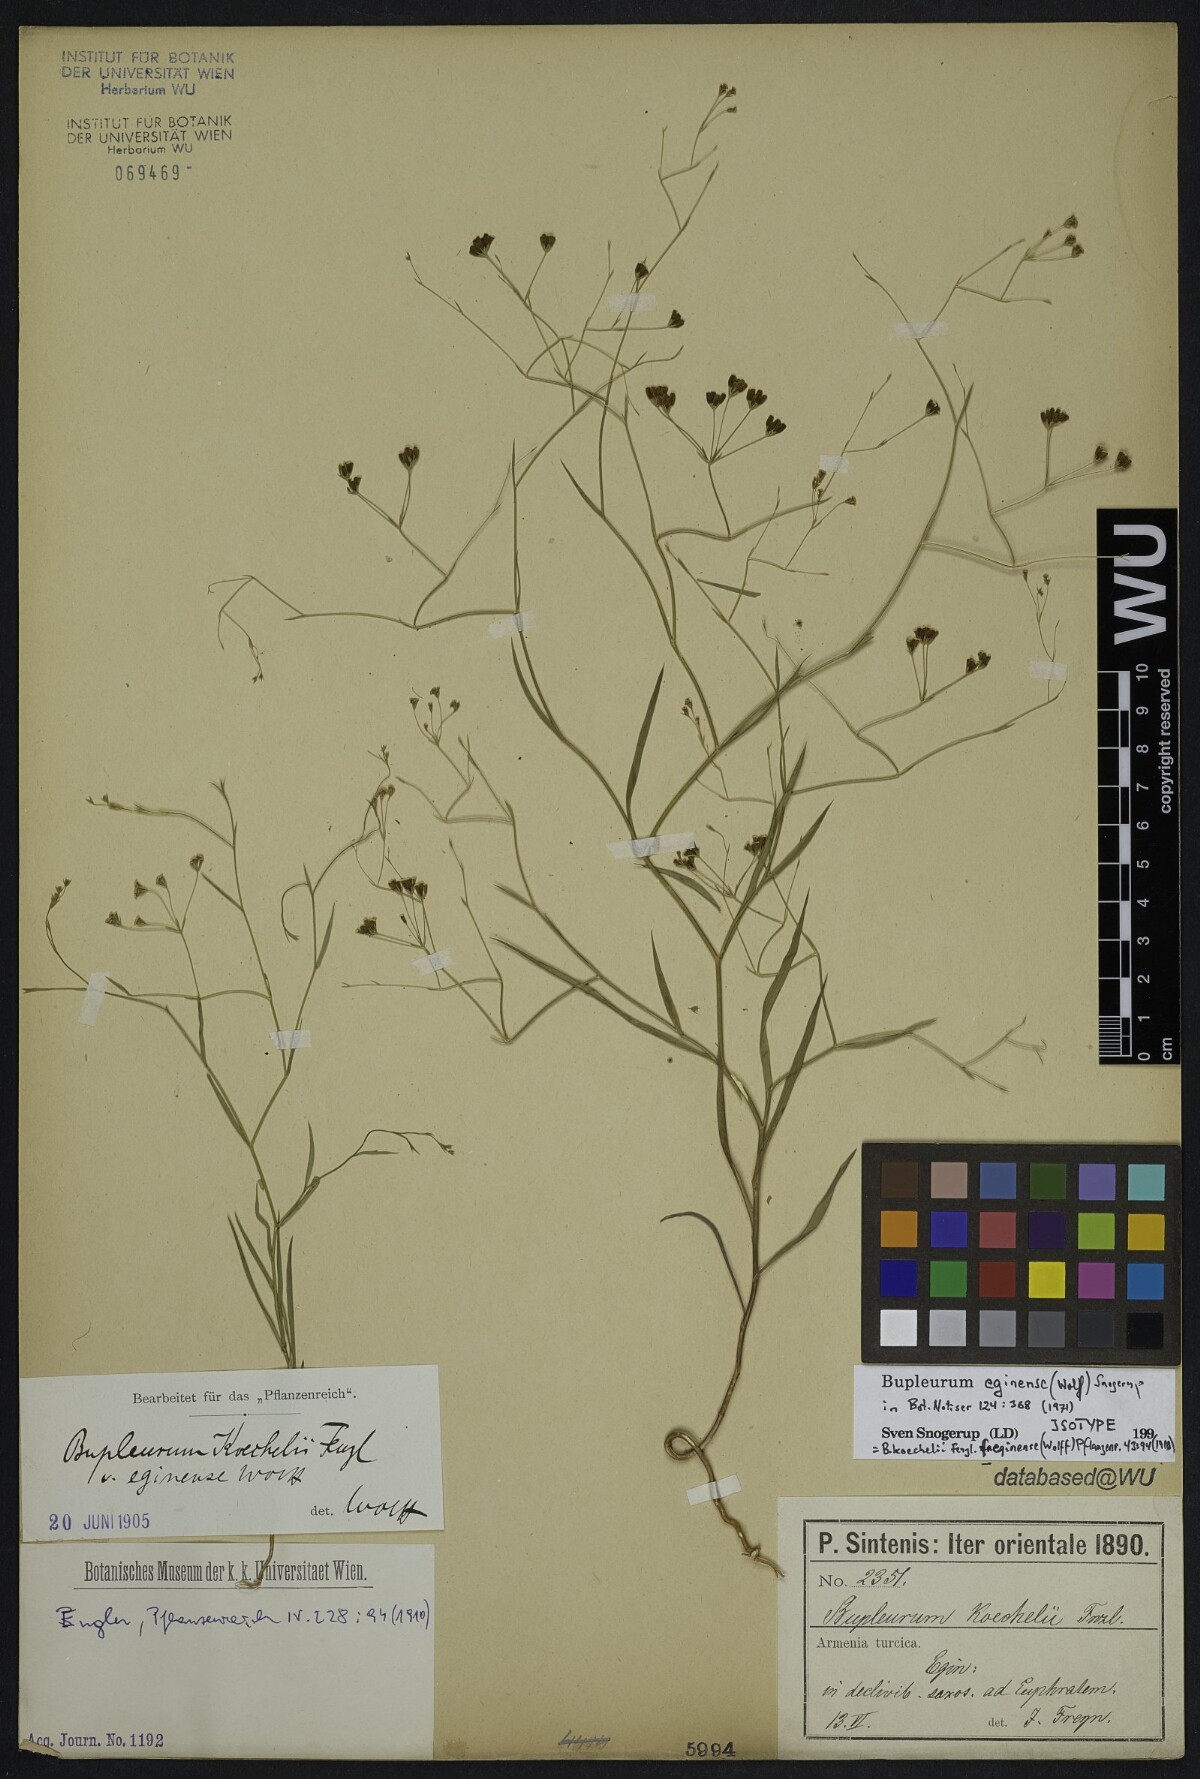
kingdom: Plantae
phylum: Tracheophyta
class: Magnoliopsida
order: Apiales
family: Apiaceae
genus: Bupleurum
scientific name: Bupleurum eginense
